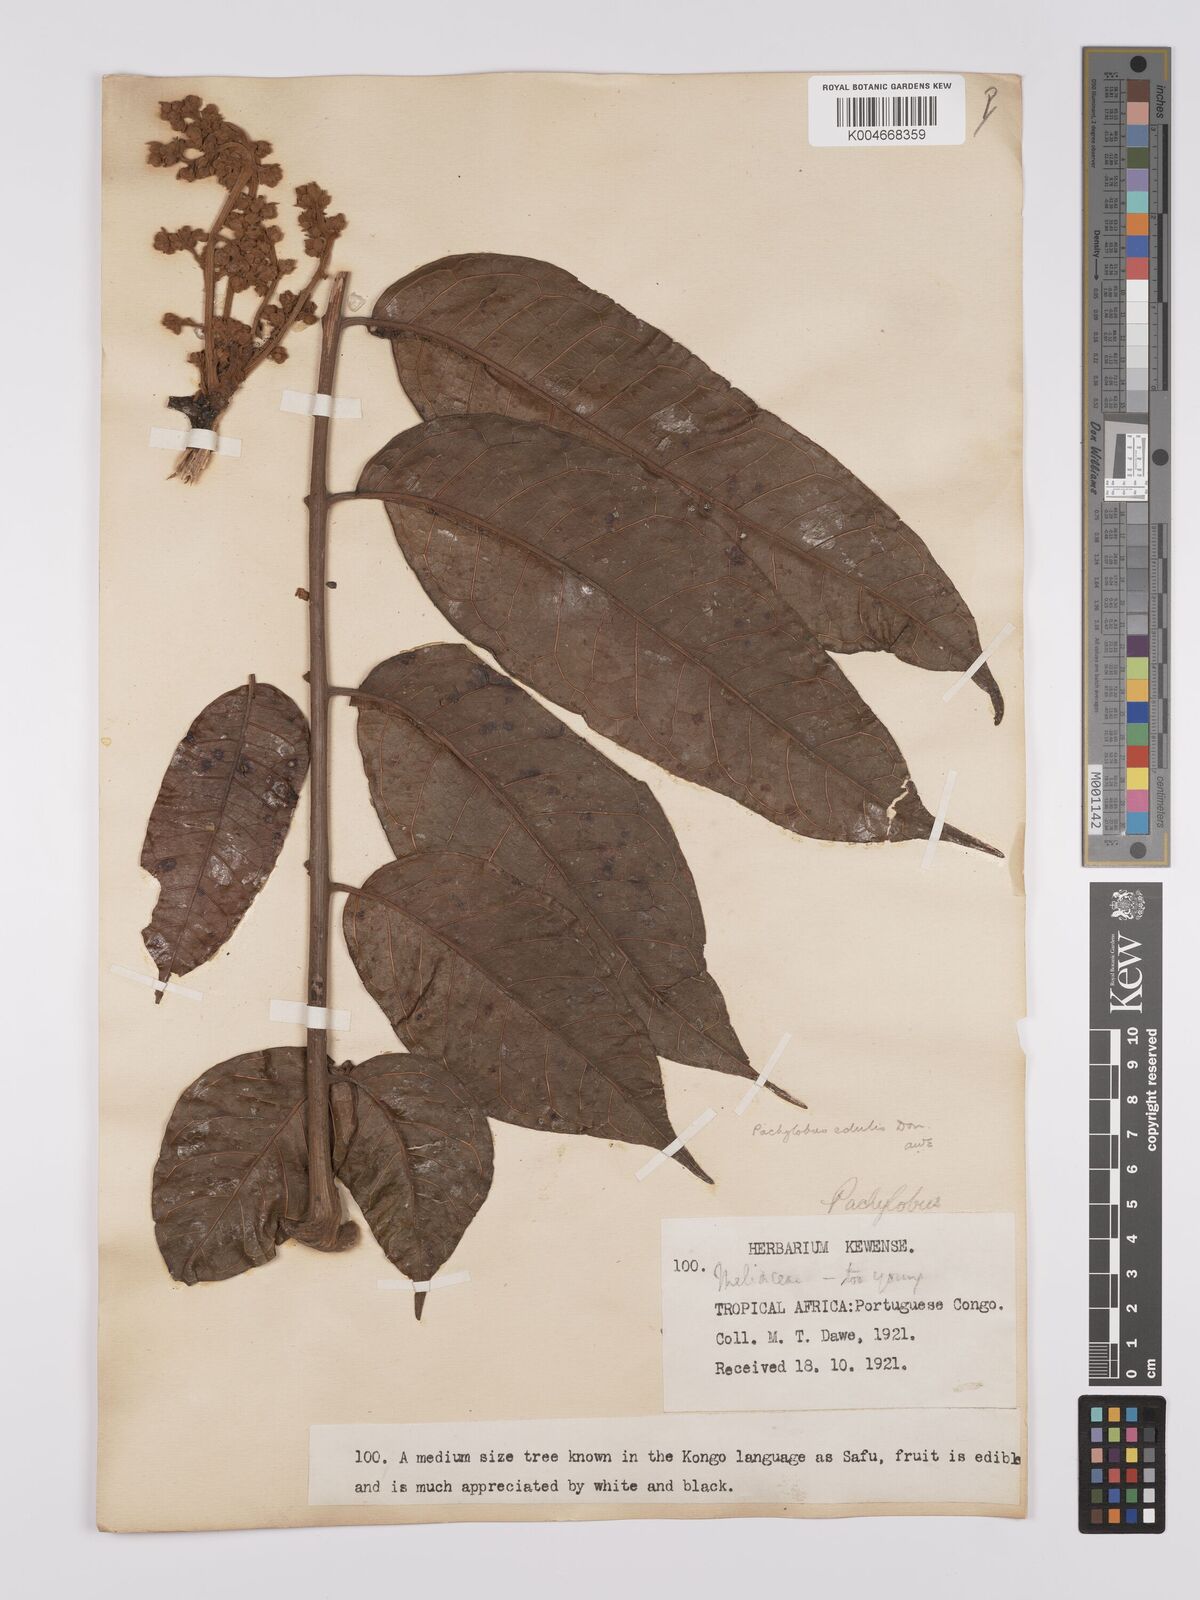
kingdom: Plantae
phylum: Tracheophyta
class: Magnoliopsida
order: Sapindales
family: Burseraceae
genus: Pachylobus
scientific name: Pachylobus edulis
